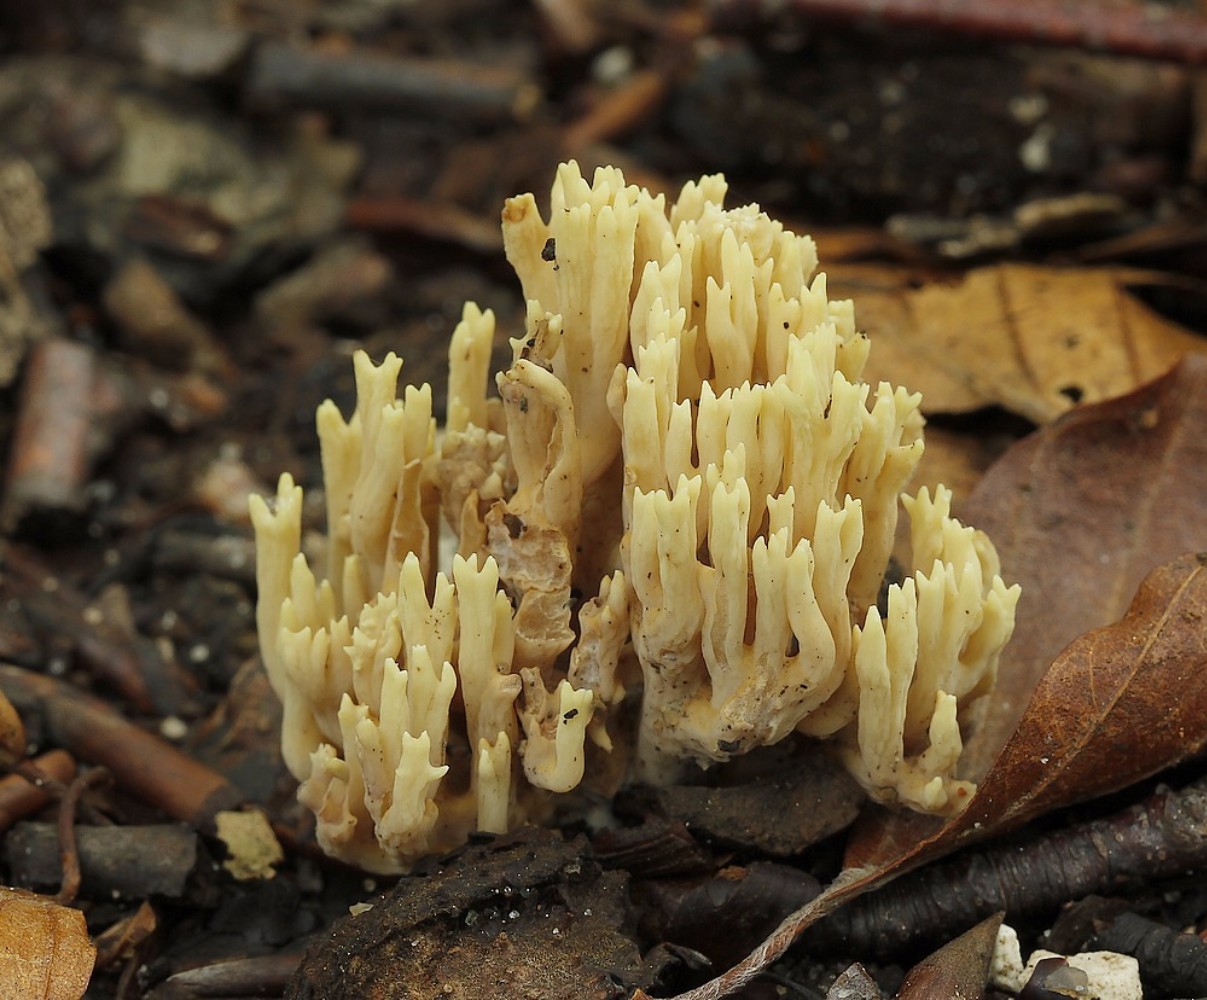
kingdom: Fungi
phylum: Basidiomycota
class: Agaricomycetes
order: Gomphales
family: Gomphaceae
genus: Ramaria
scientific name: Ramaria
